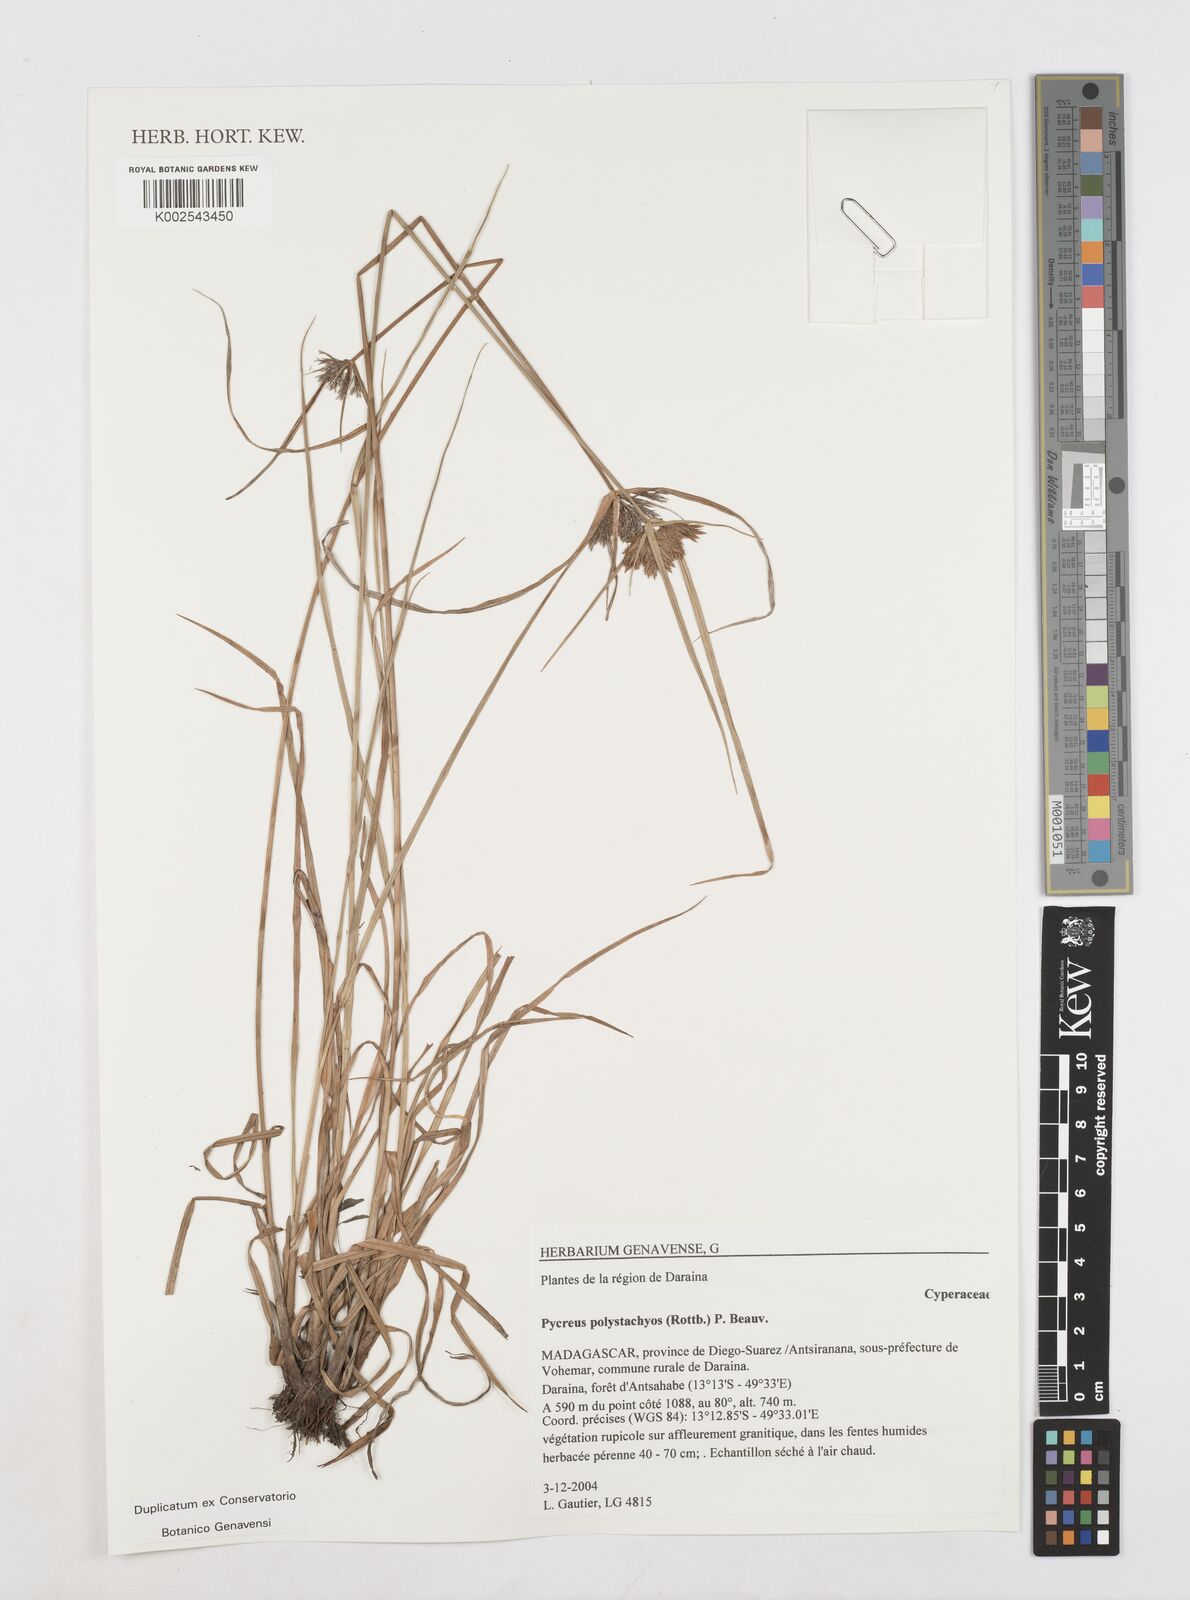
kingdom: Plantae
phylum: Tracheophyta
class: Liliopsida
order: Poales
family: Cyperaceae
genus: Cyperus
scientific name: Cyperus polystachyos
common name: Bunchy flat sedge
